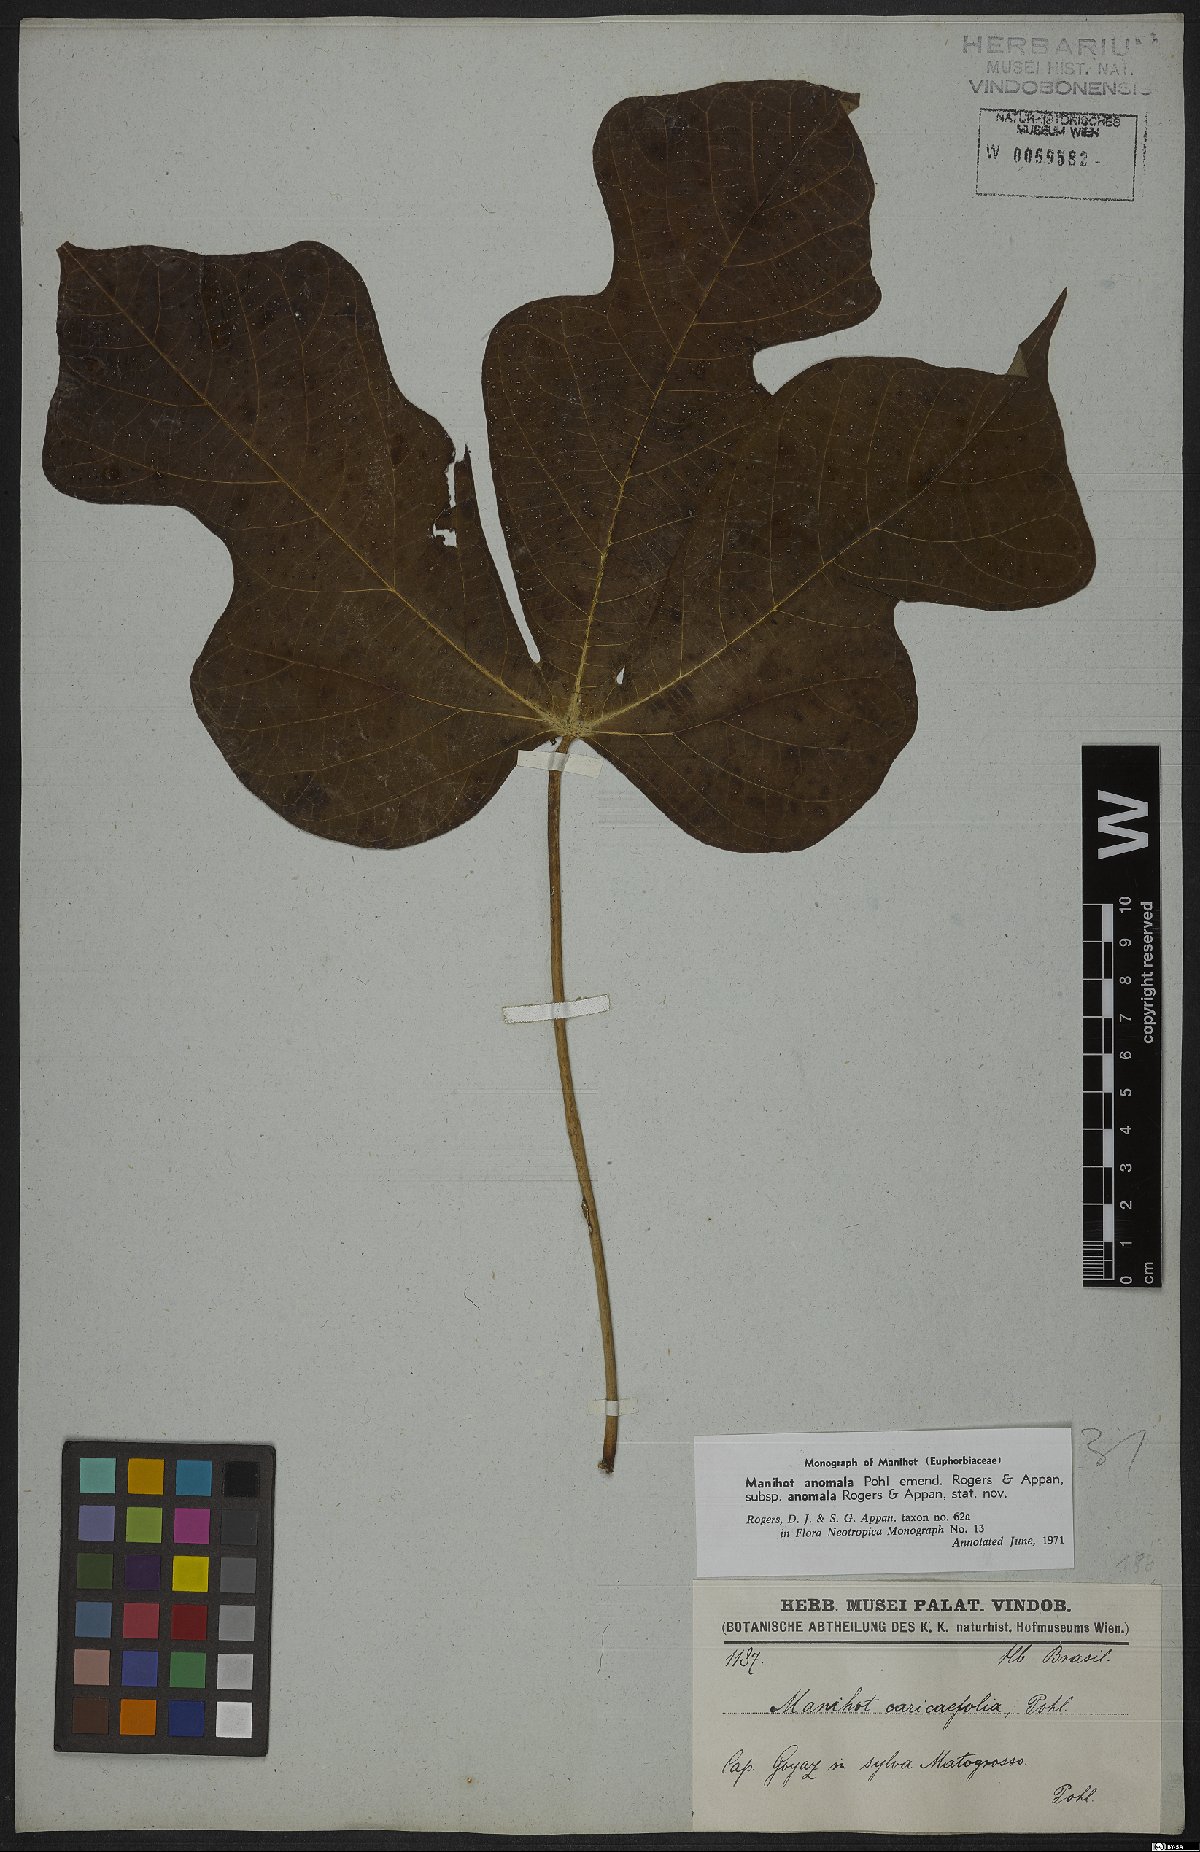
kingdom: Plantae
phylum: Tracheophyta
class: Magnoliopsida
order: Malpighiales
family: Euphorbiaceae
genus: Manihot
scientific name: Manihot anomala
